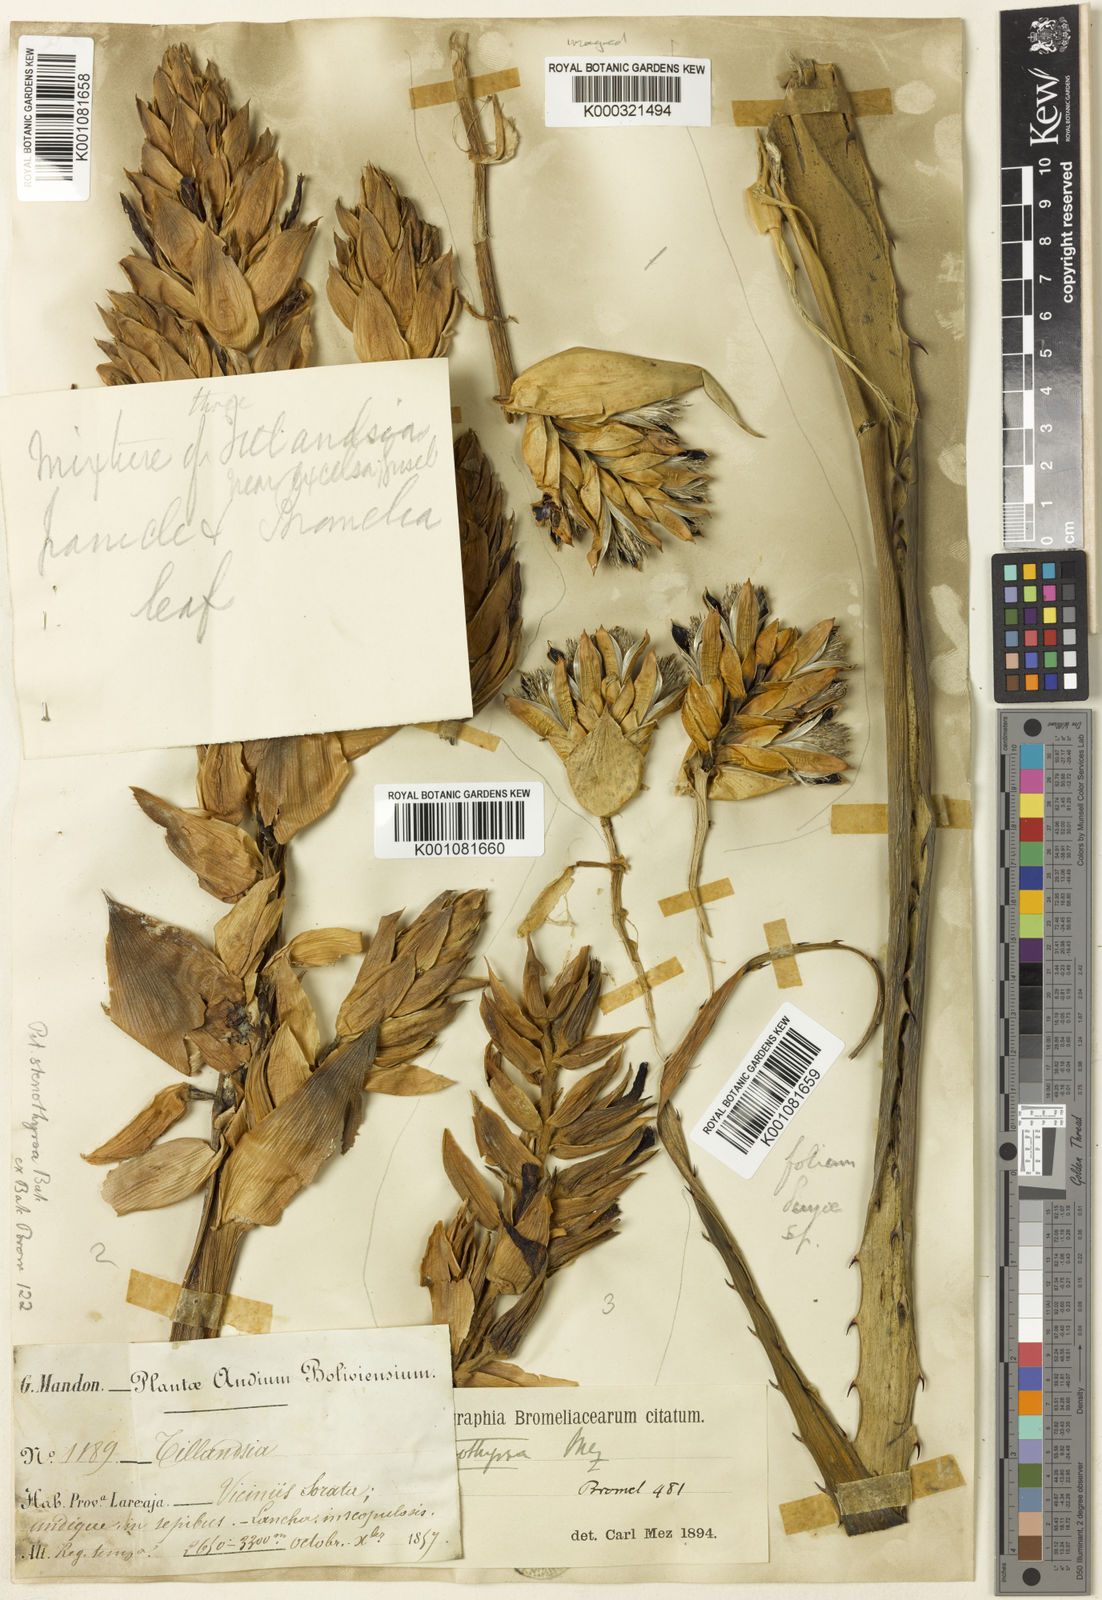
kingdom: Plantae
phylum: Tracheophyta
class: Liliopsida
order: Poales
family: Bromeliaceae
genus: Puya
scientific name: Puya stenothyrsa
